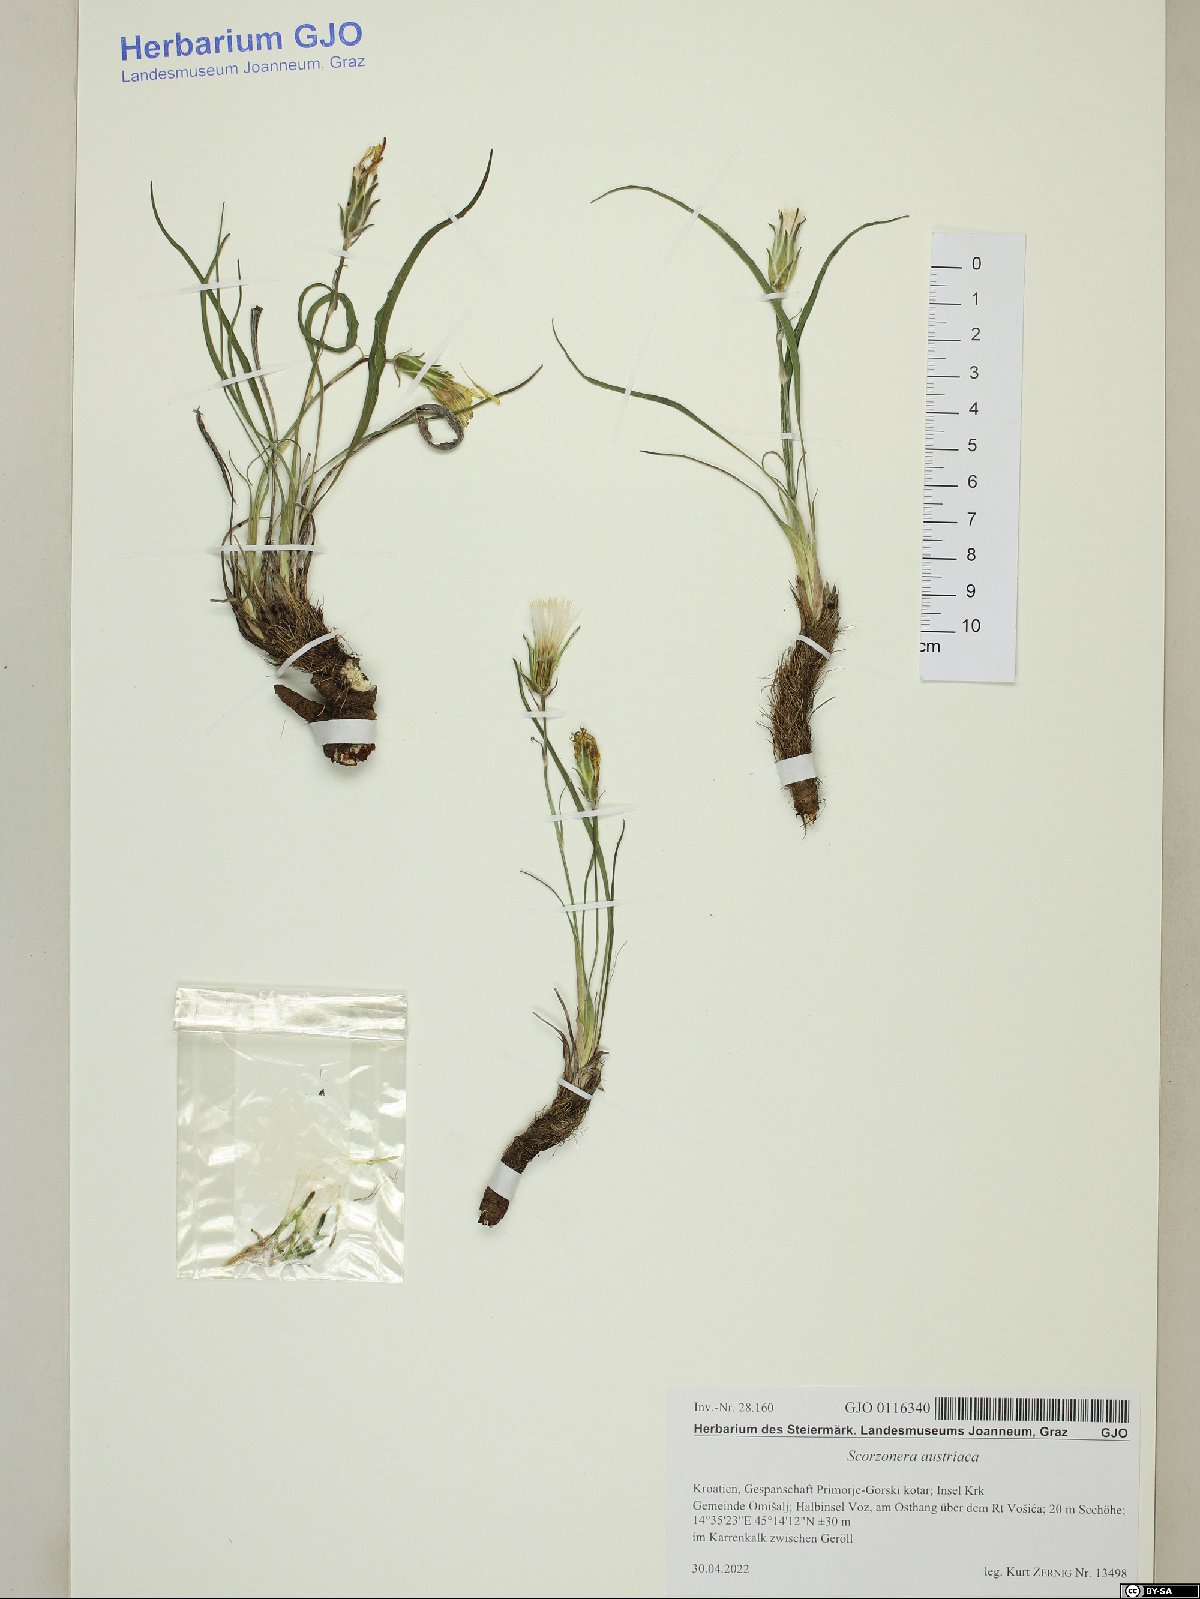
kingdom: Plantae
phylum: Tracheophyta
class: Magnoliopsida
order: Asterales
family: Asteraceae
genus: Takhtajaniantha
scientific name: Takhtajaniantha austriaca
